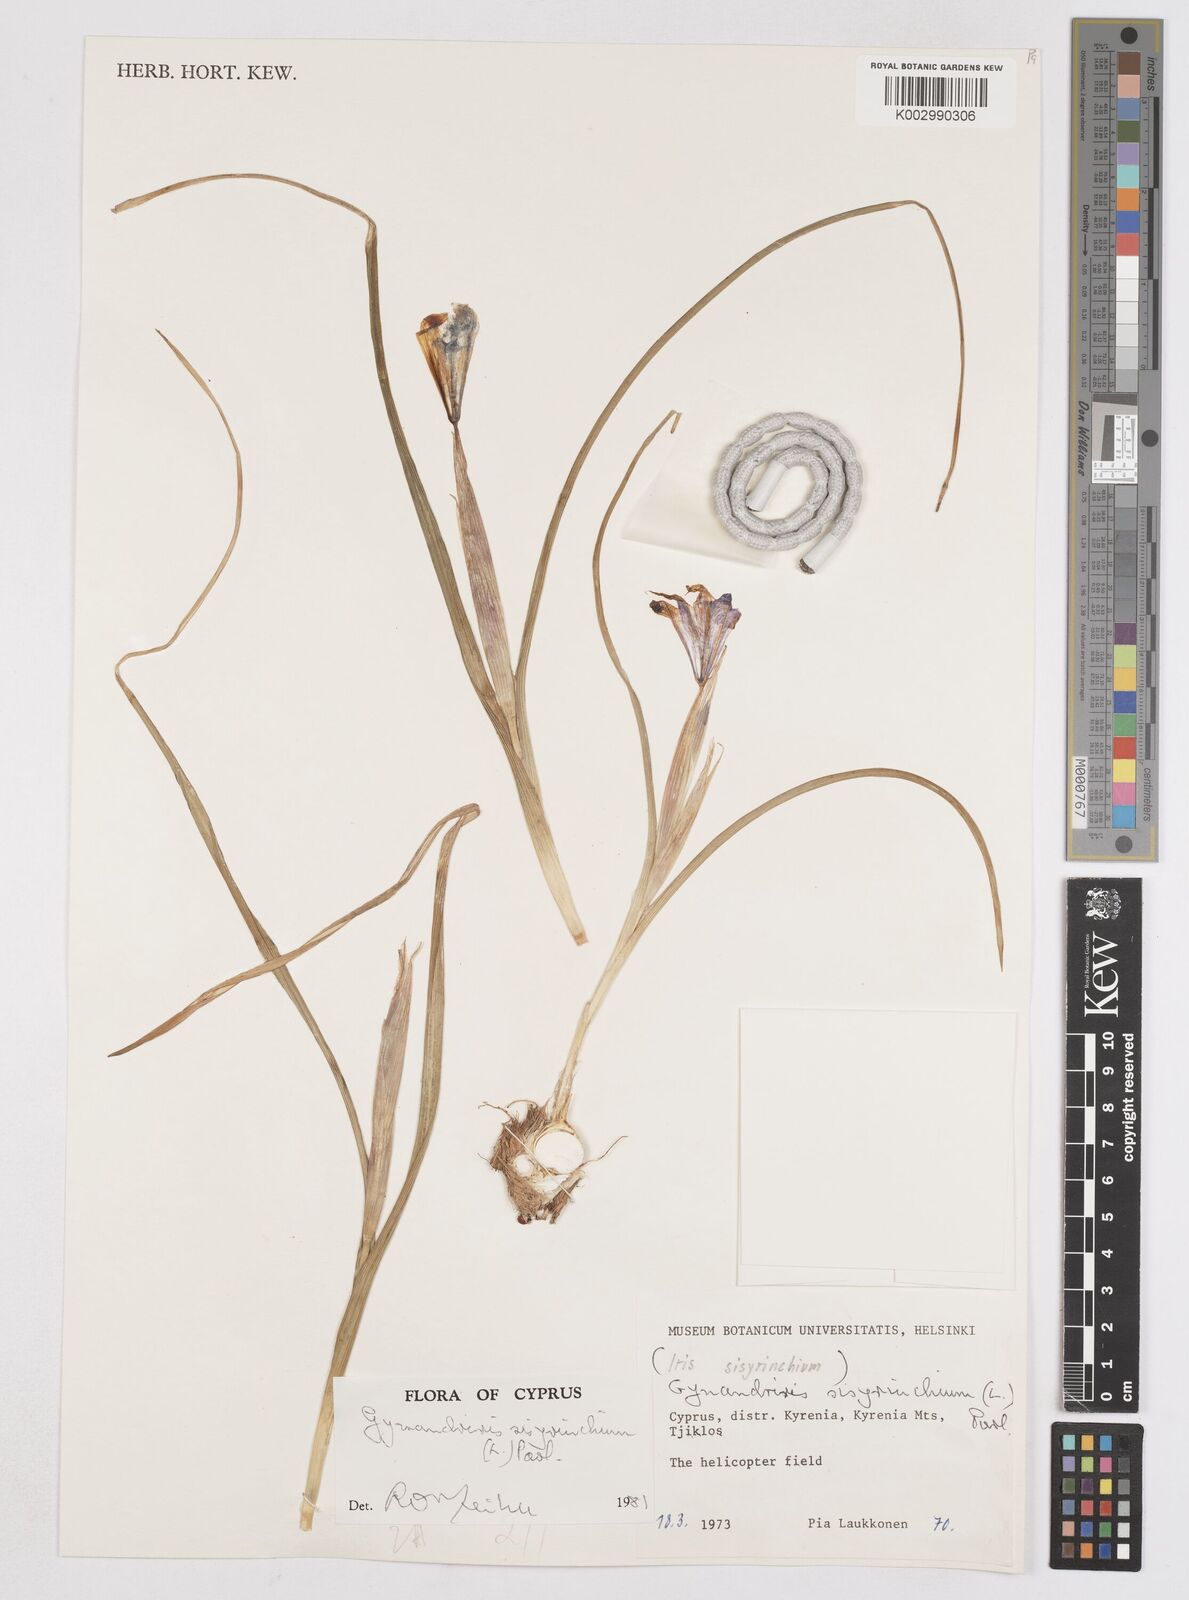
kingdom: Plantae
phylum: Tracheophyta
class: Liliopsida
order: Asparagales
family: Iridaceae
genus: Moraea
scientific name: Moraea sisyrinchium
